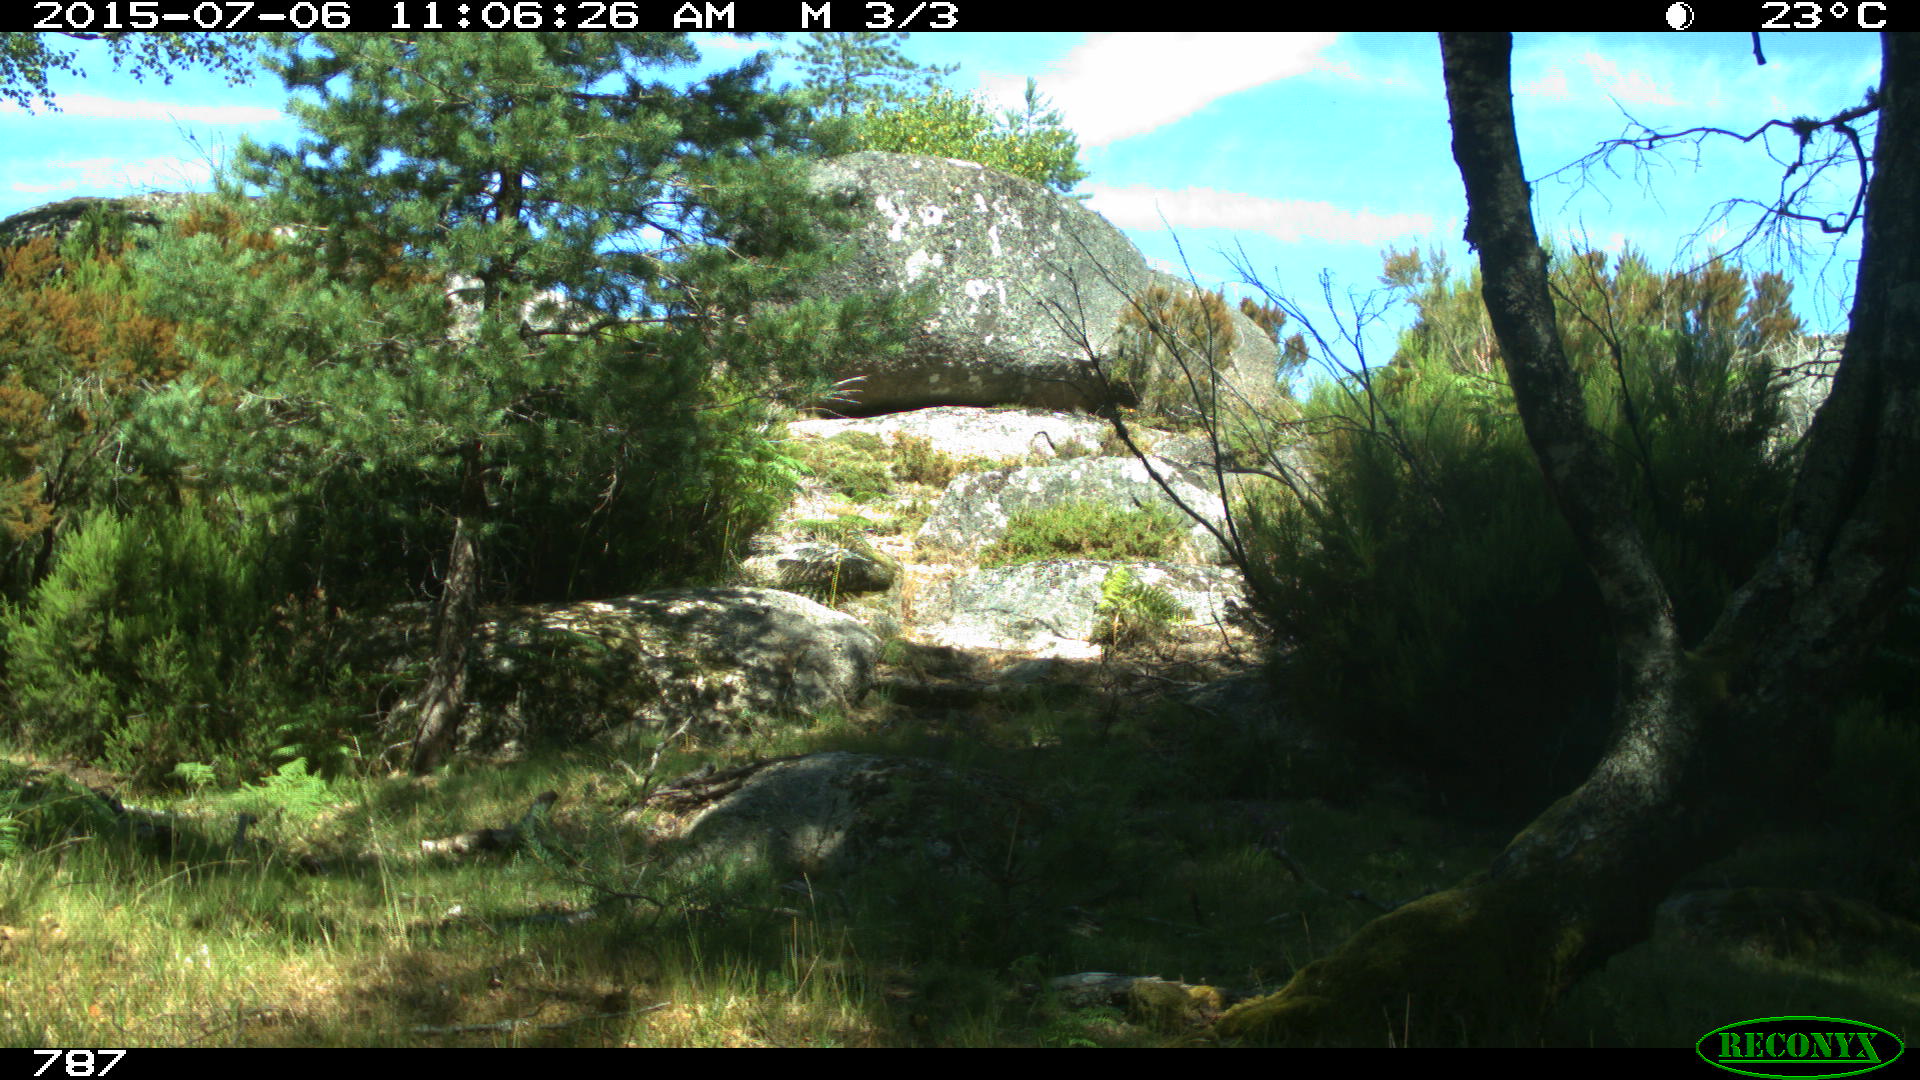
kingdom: Animalia
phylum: Chordata
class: Mammalia
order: Perissodactyla
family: Equidae
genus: Equus
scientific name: Equus caballus
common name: Horse
